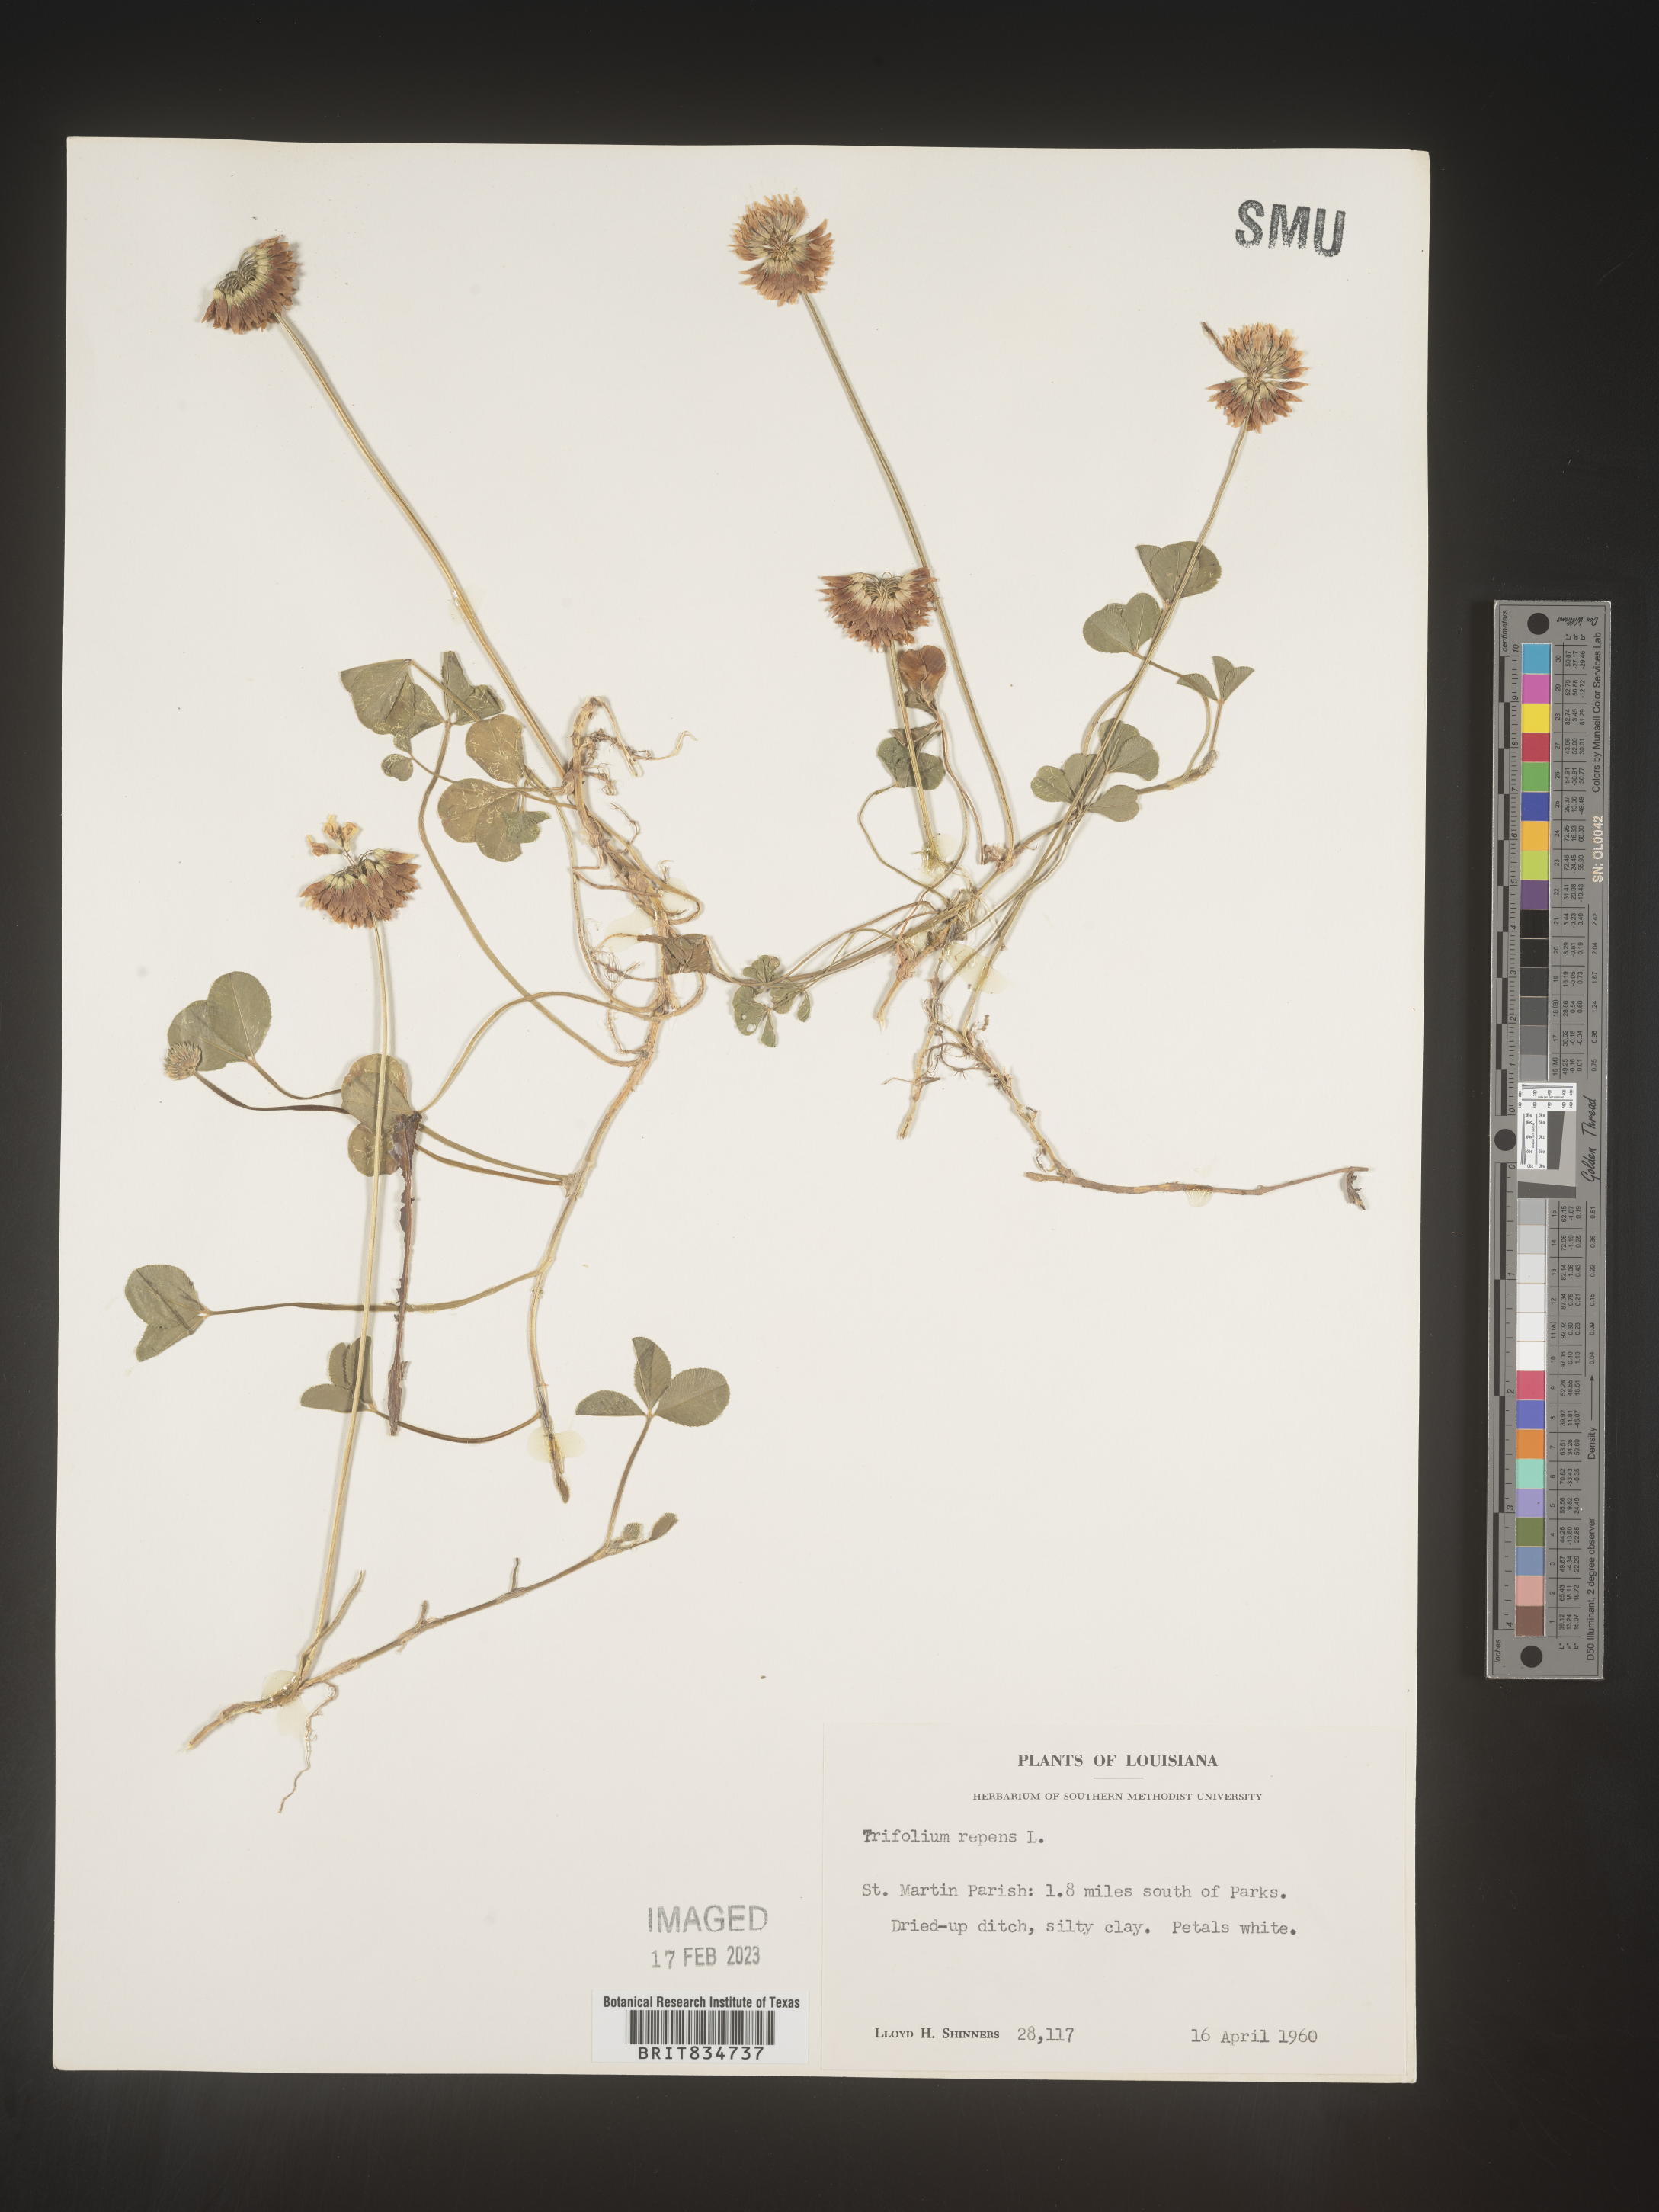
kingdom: Plantae
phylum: Tracheophyta
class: Magnoliopsida
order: Fabales
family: Fabaceae
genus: Trifolium
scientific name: Trifolium repens
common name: White clover
